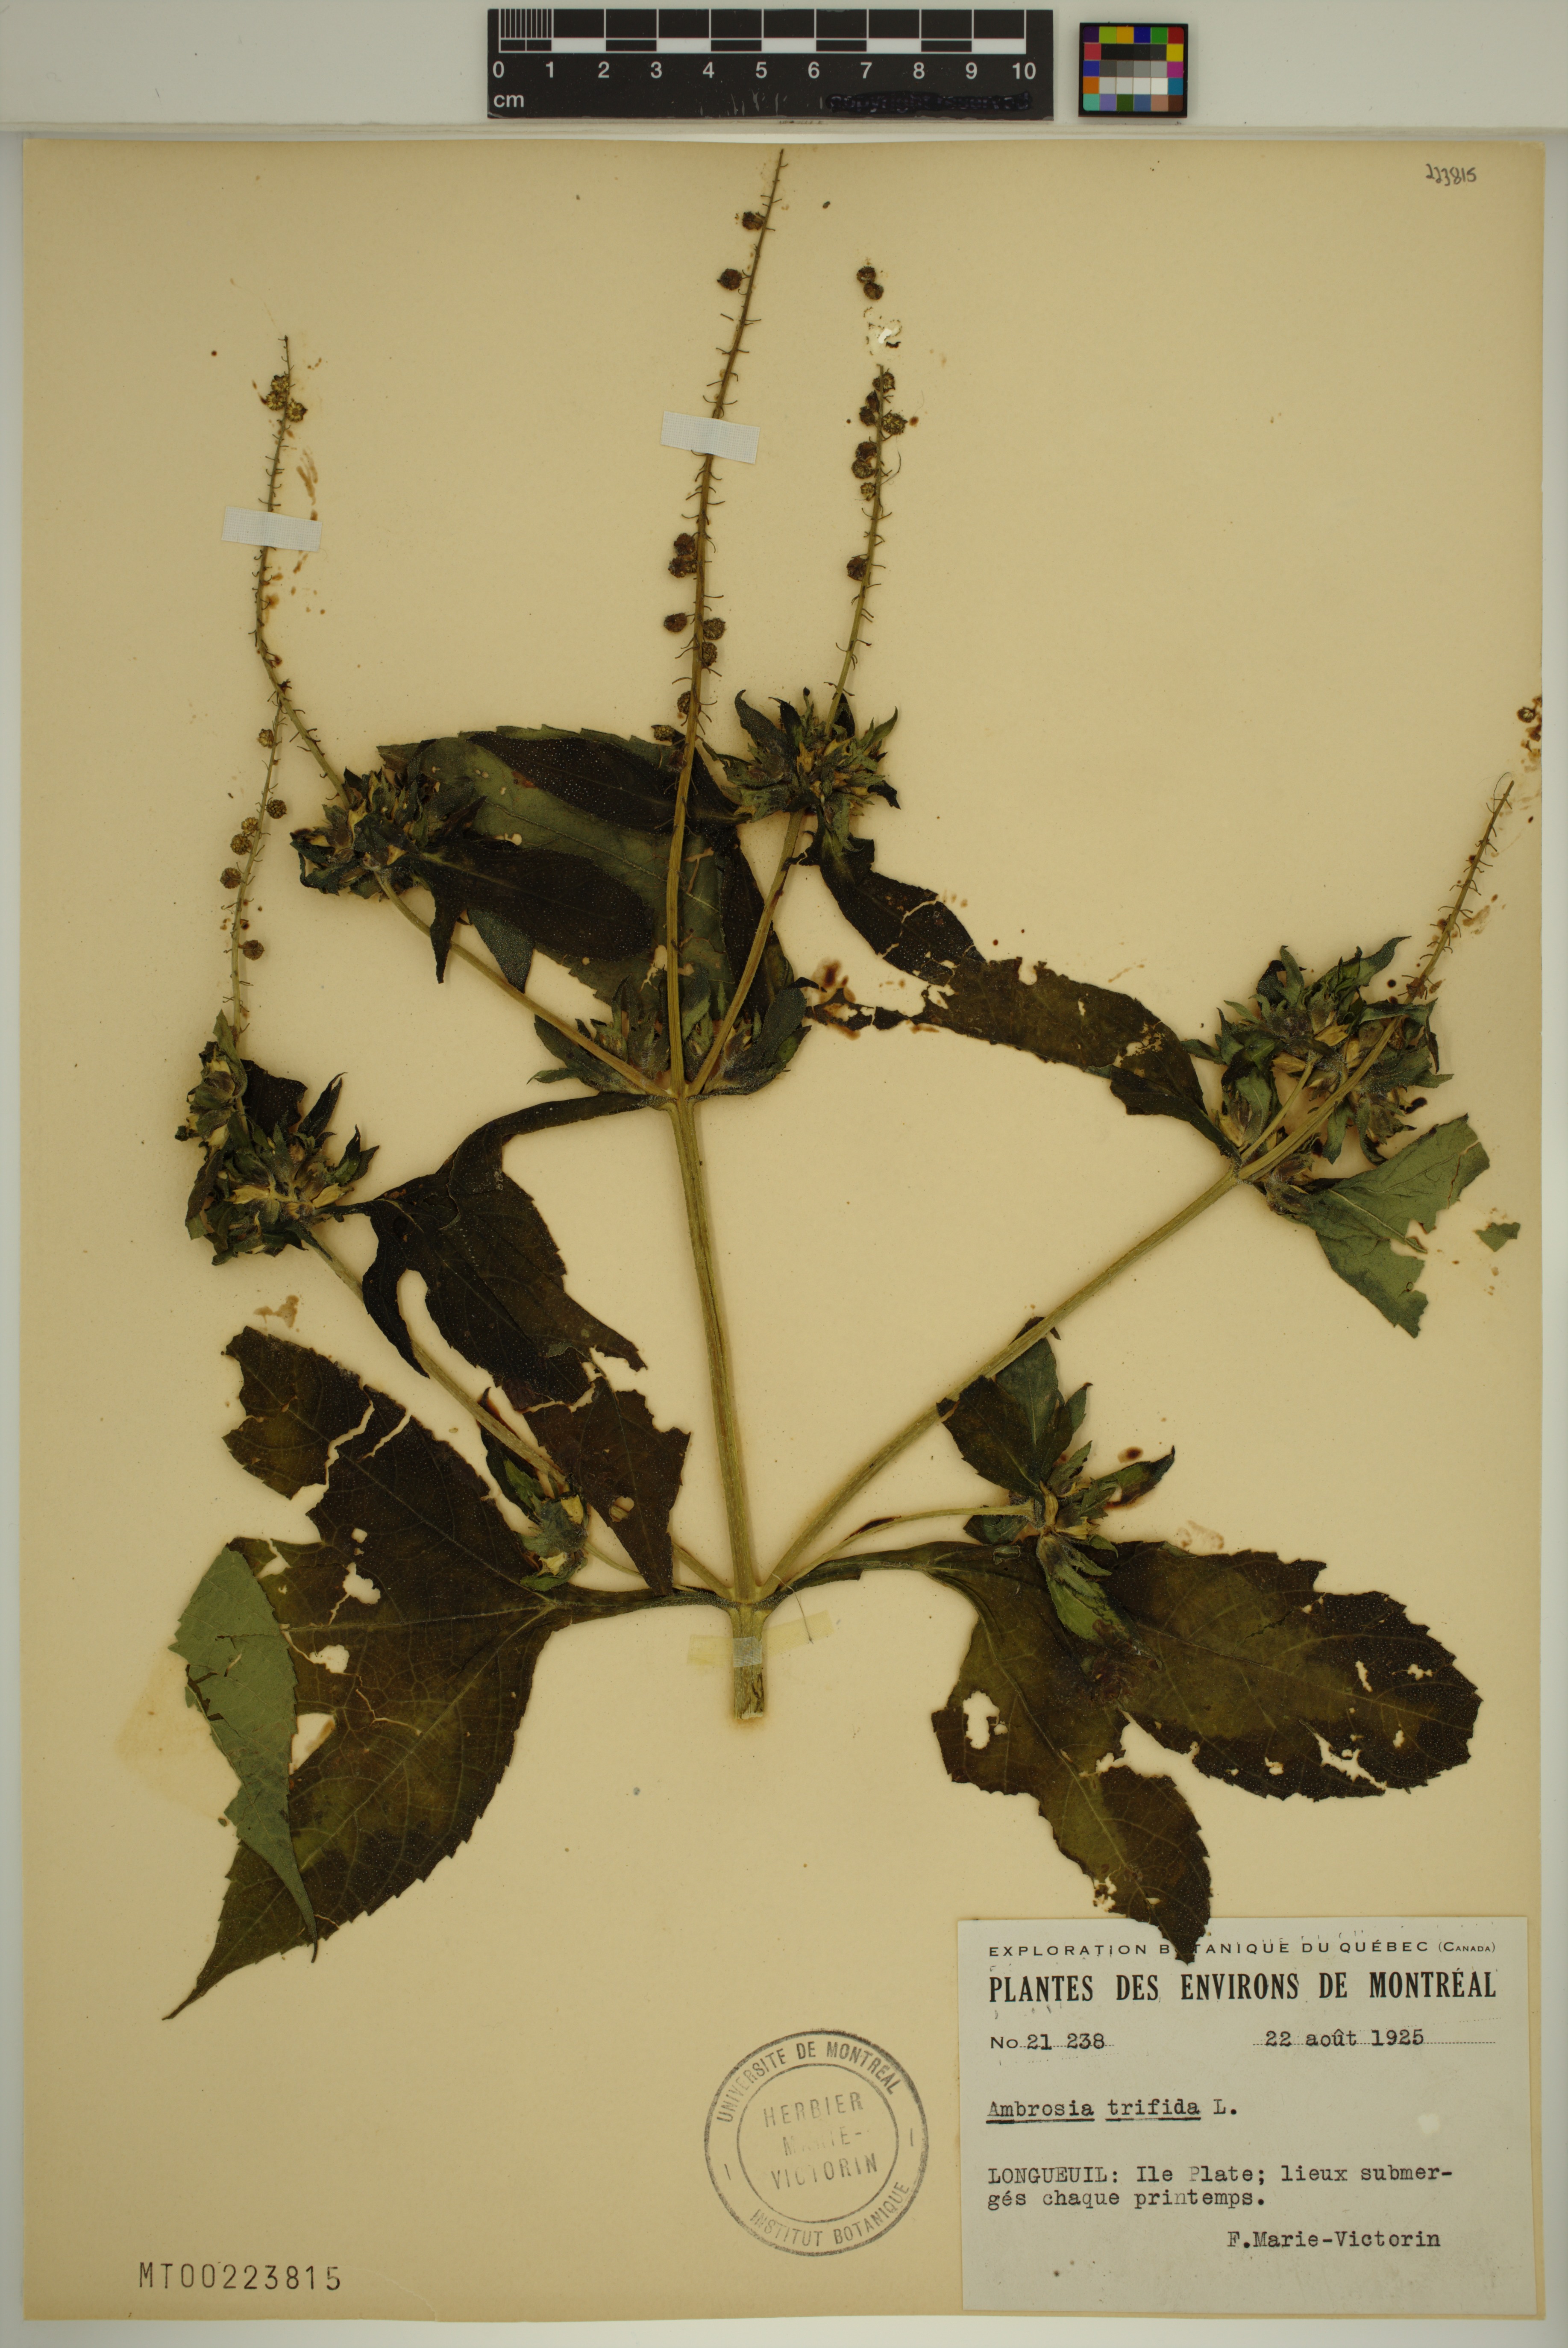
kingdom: Plantae
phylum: Tracheophyta
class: Magnoliopsida
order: Asterales
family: Asteraceae
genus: Ambrosia
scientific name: Ambrosia trifida
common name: Giant ragweed
